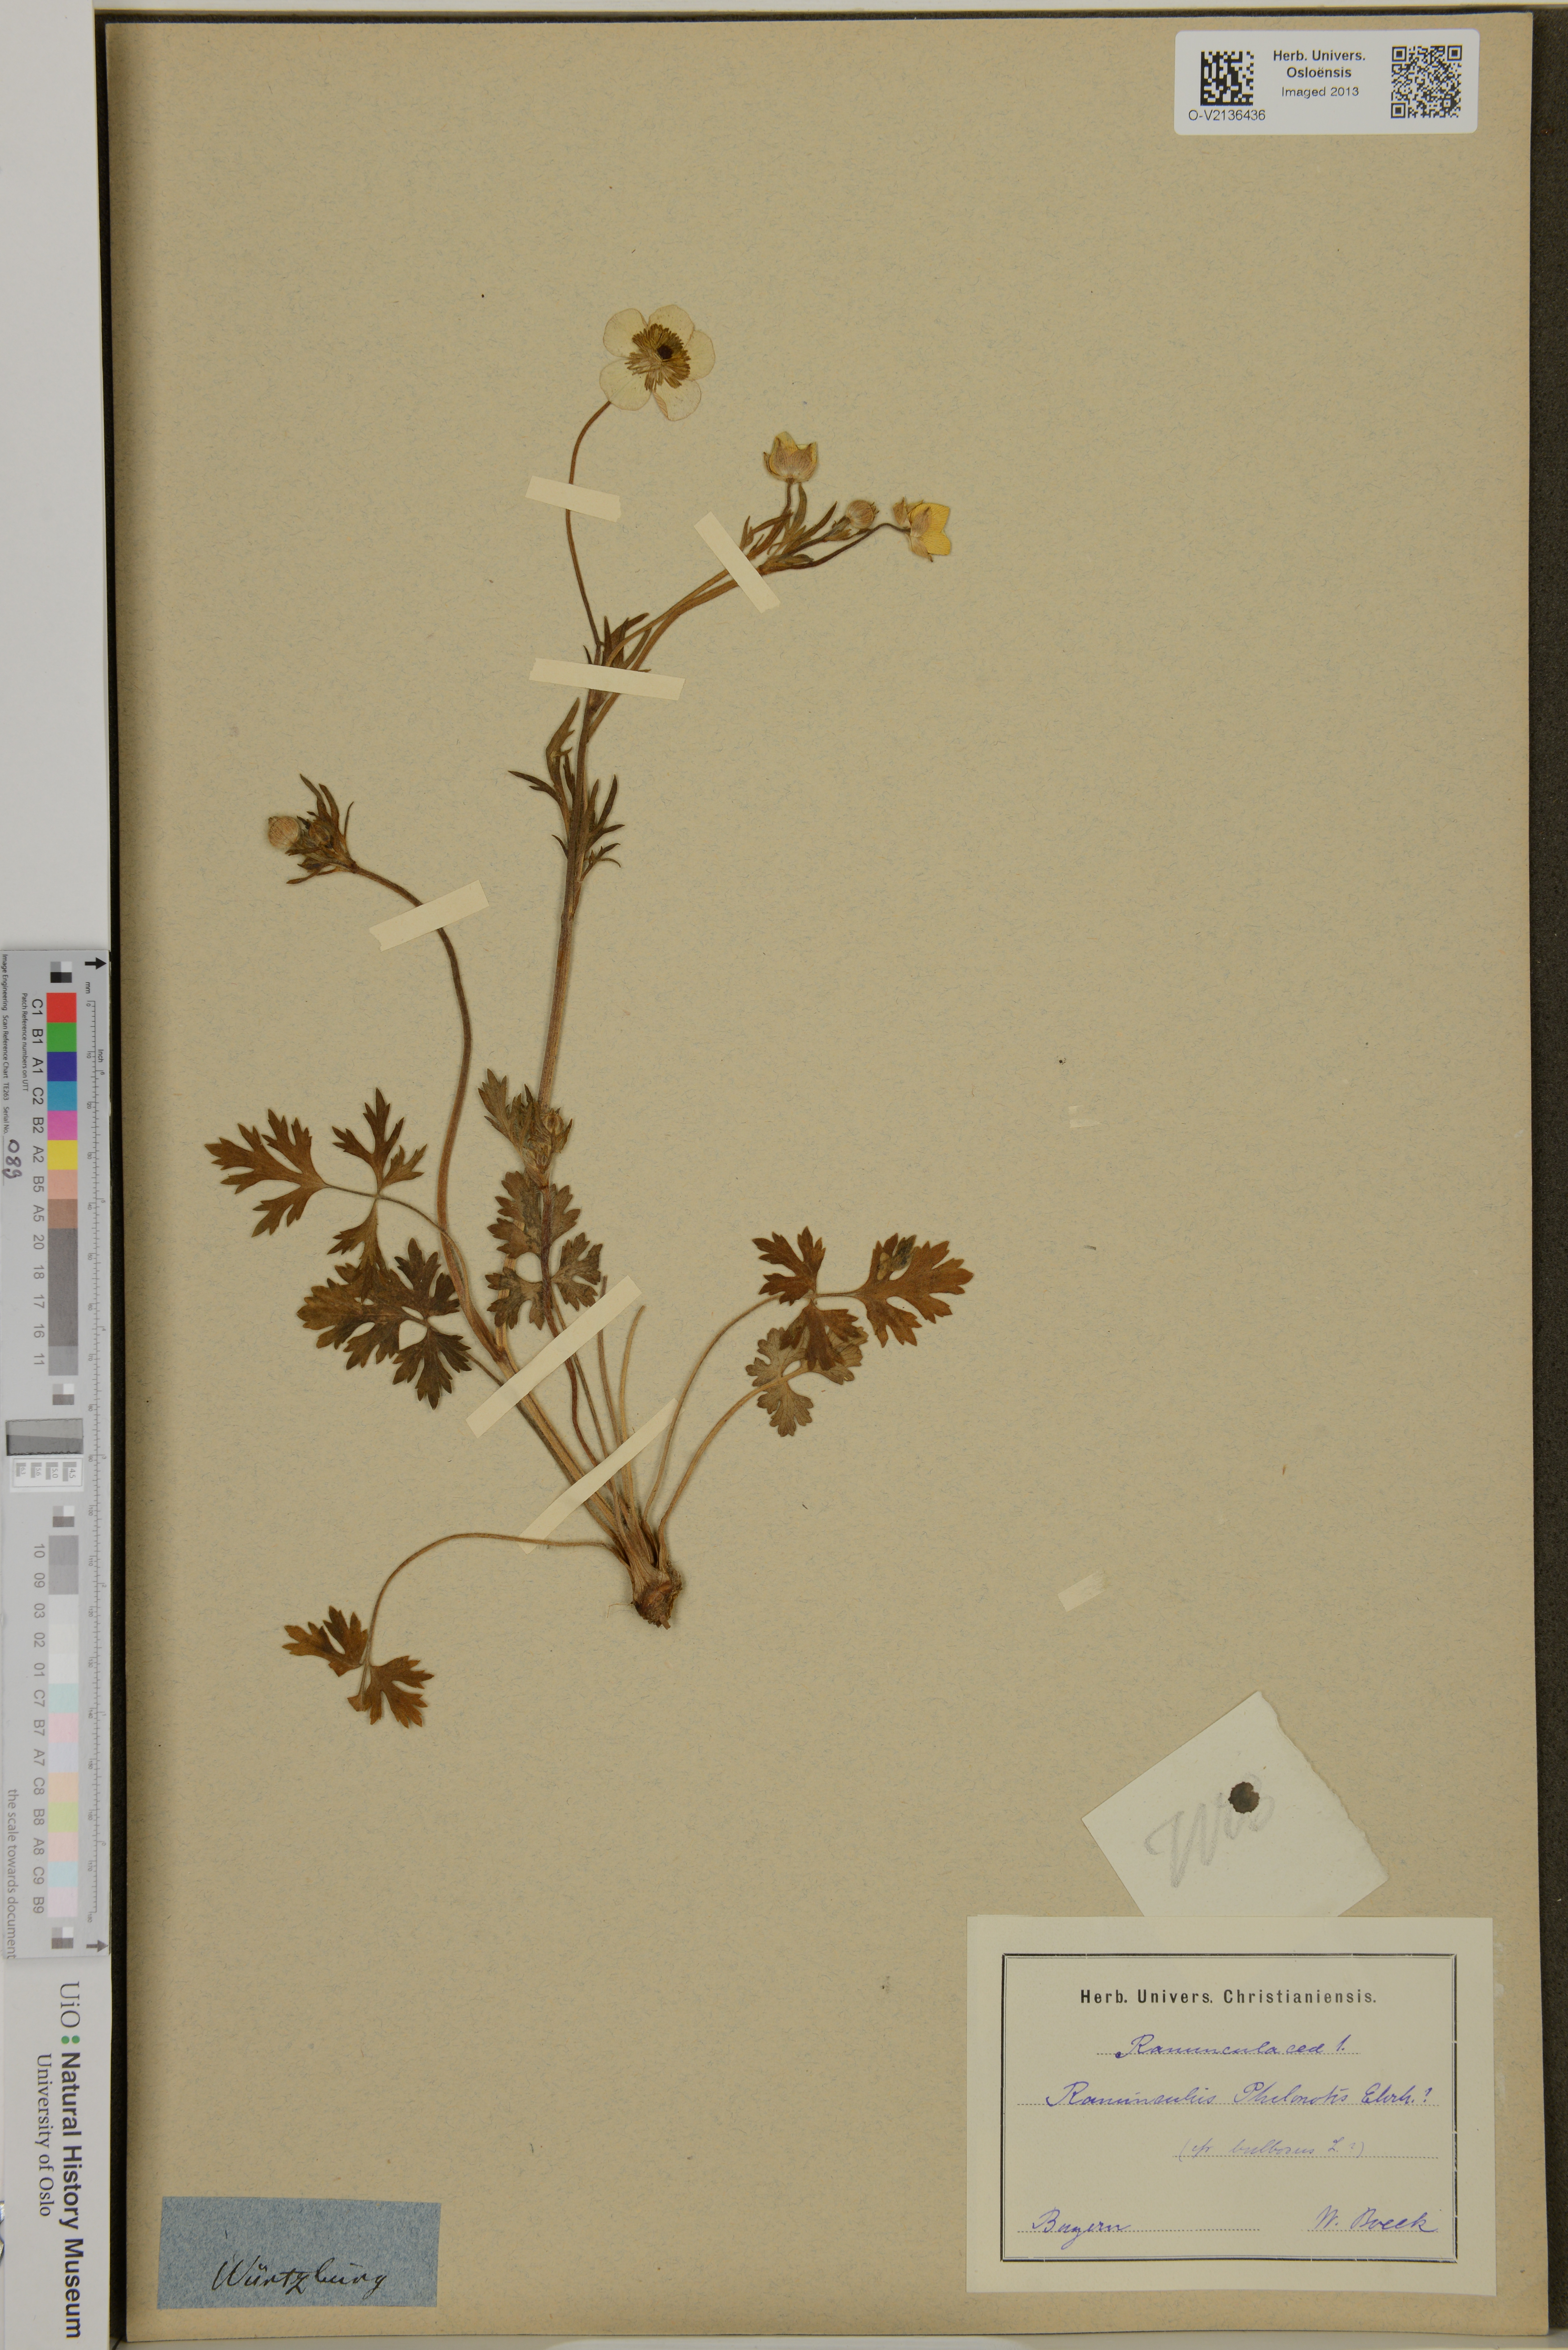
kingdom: Plantae
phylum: Tracheophyta
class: Magnoliopsida
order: Ranunculales
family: Ranunculaceae
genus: Ranunculus
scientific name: Ranunculus sardous
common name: Hairy buttercup
